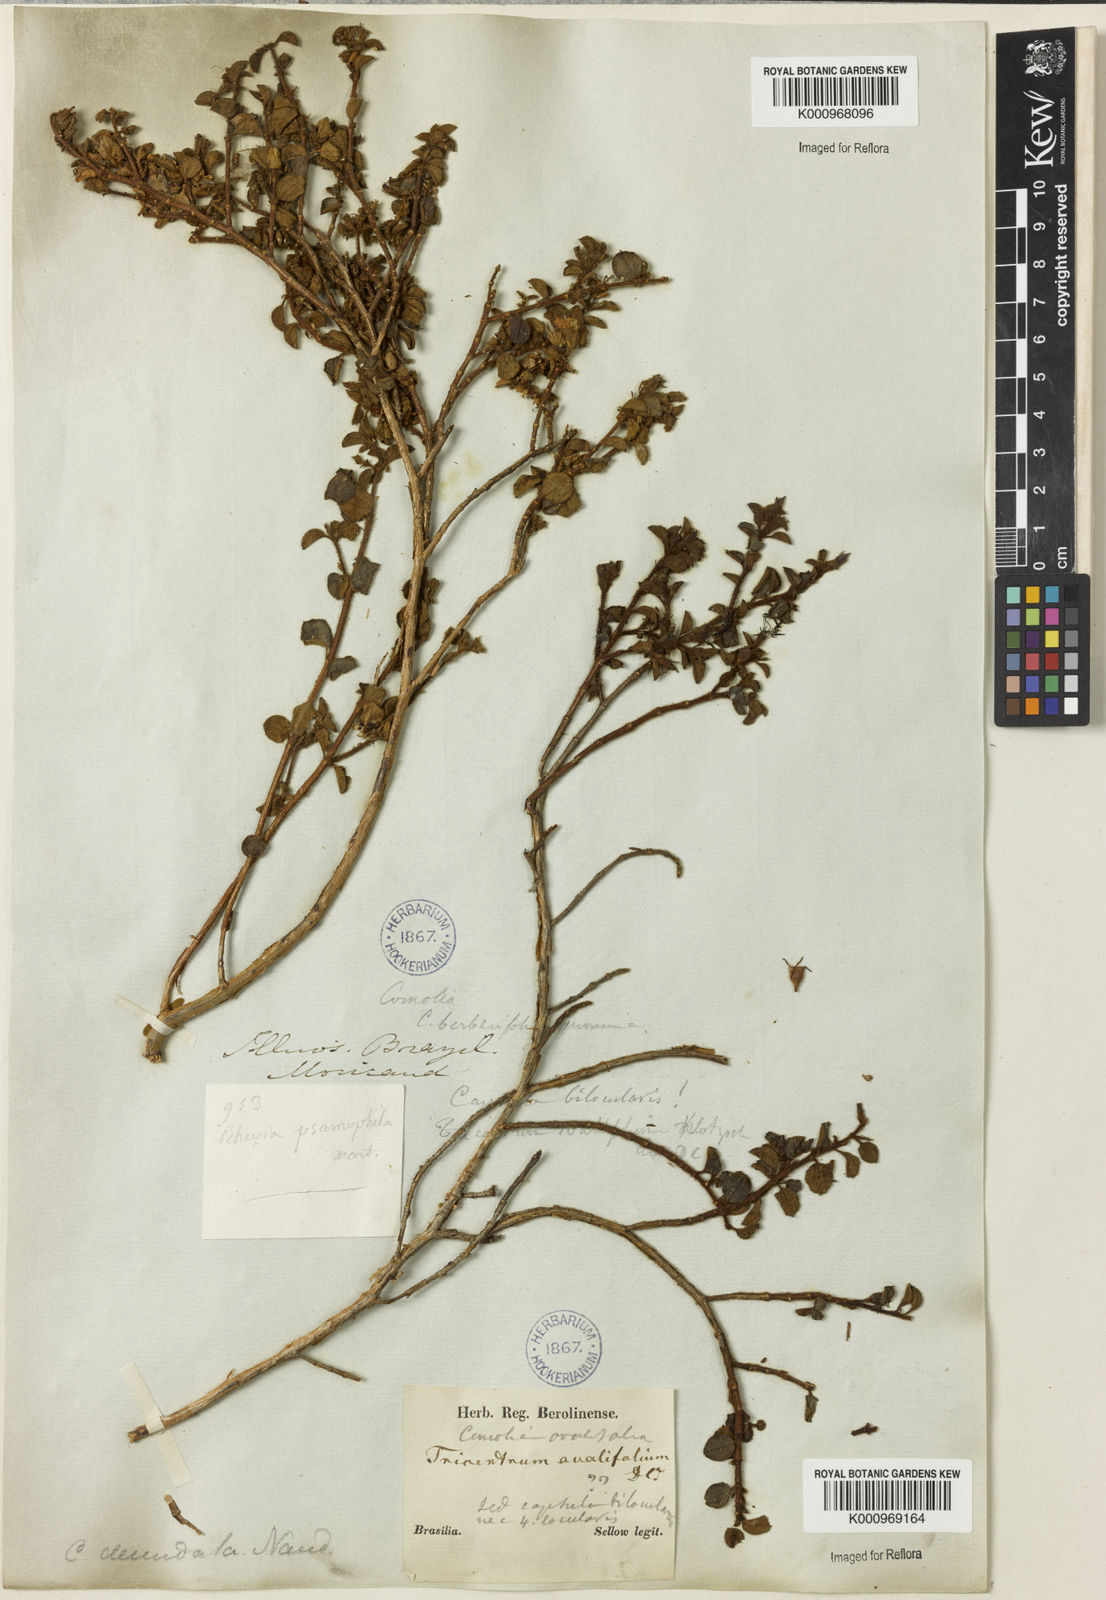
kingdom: Plantae
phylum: Tracheophyta
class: Magnoliopsida
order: Myrtales
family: Melastomataceae
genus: Comolia
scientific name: Comolia ovalifolia
